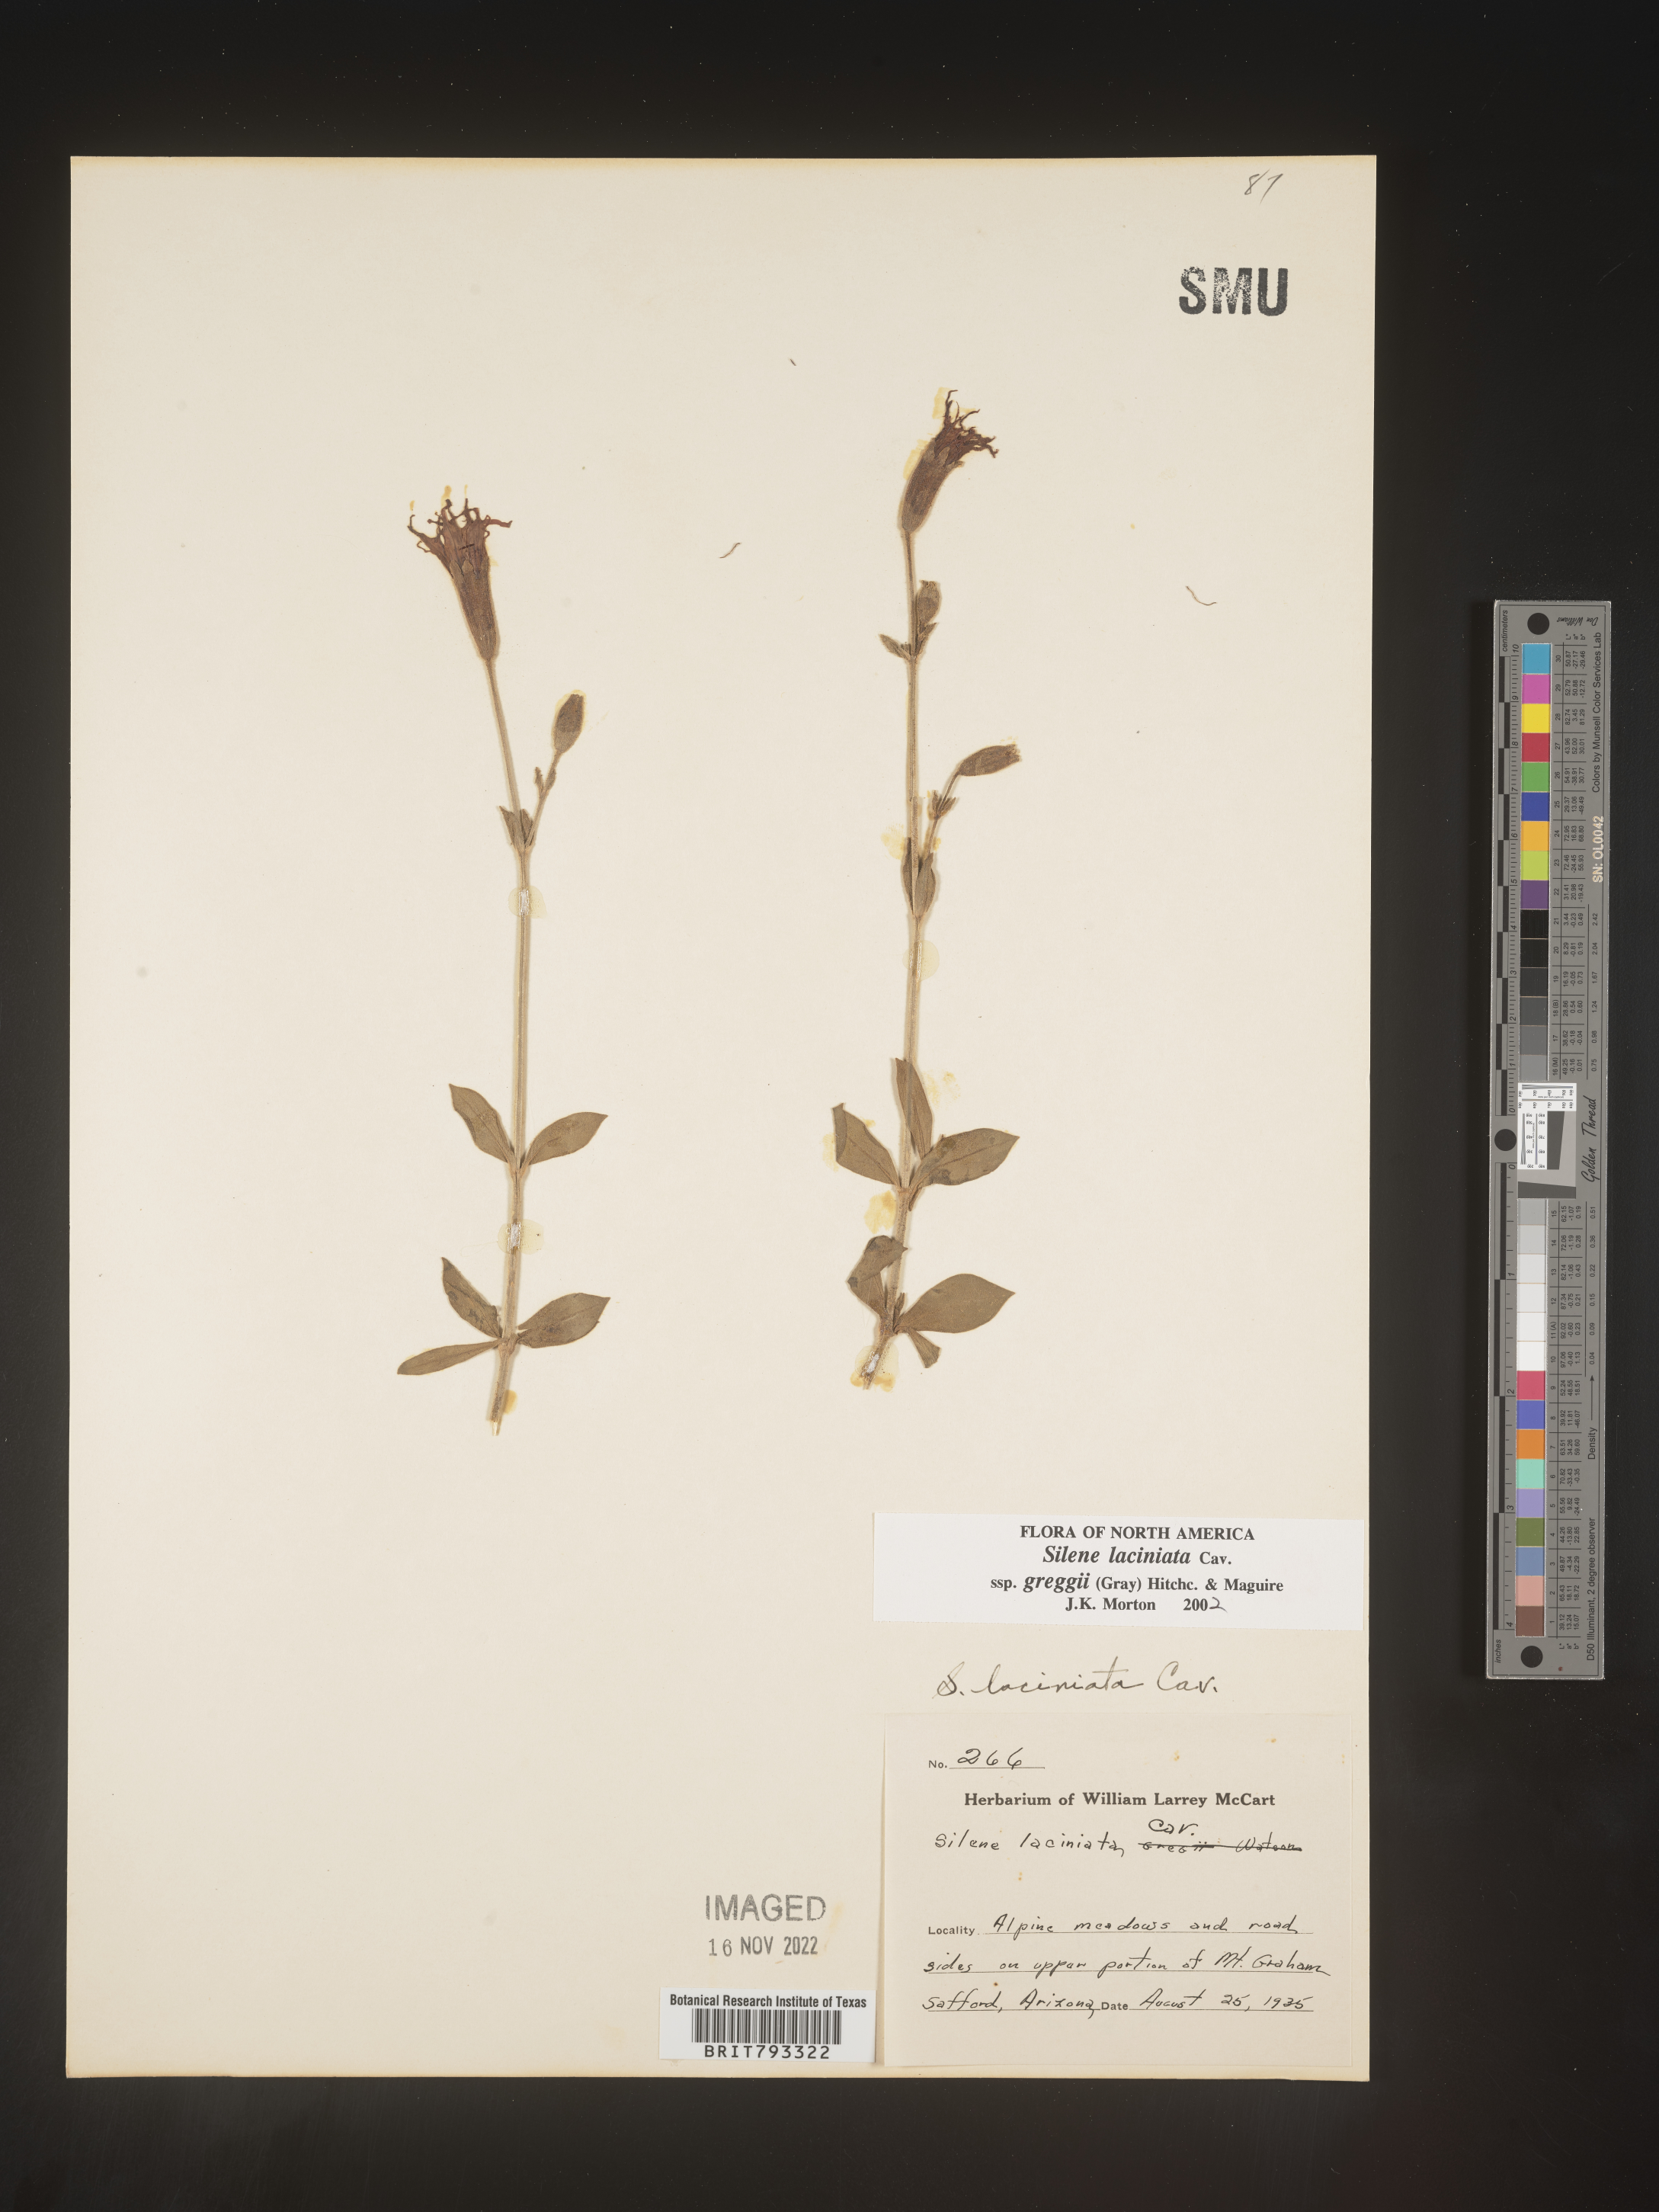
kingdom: Plantae
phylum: Tracheophyta
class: Magnoliopsida
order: Caryophyllales
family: Caryophyllaceae
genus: Silene
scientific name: Silene laciniata
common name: Indian-pink
